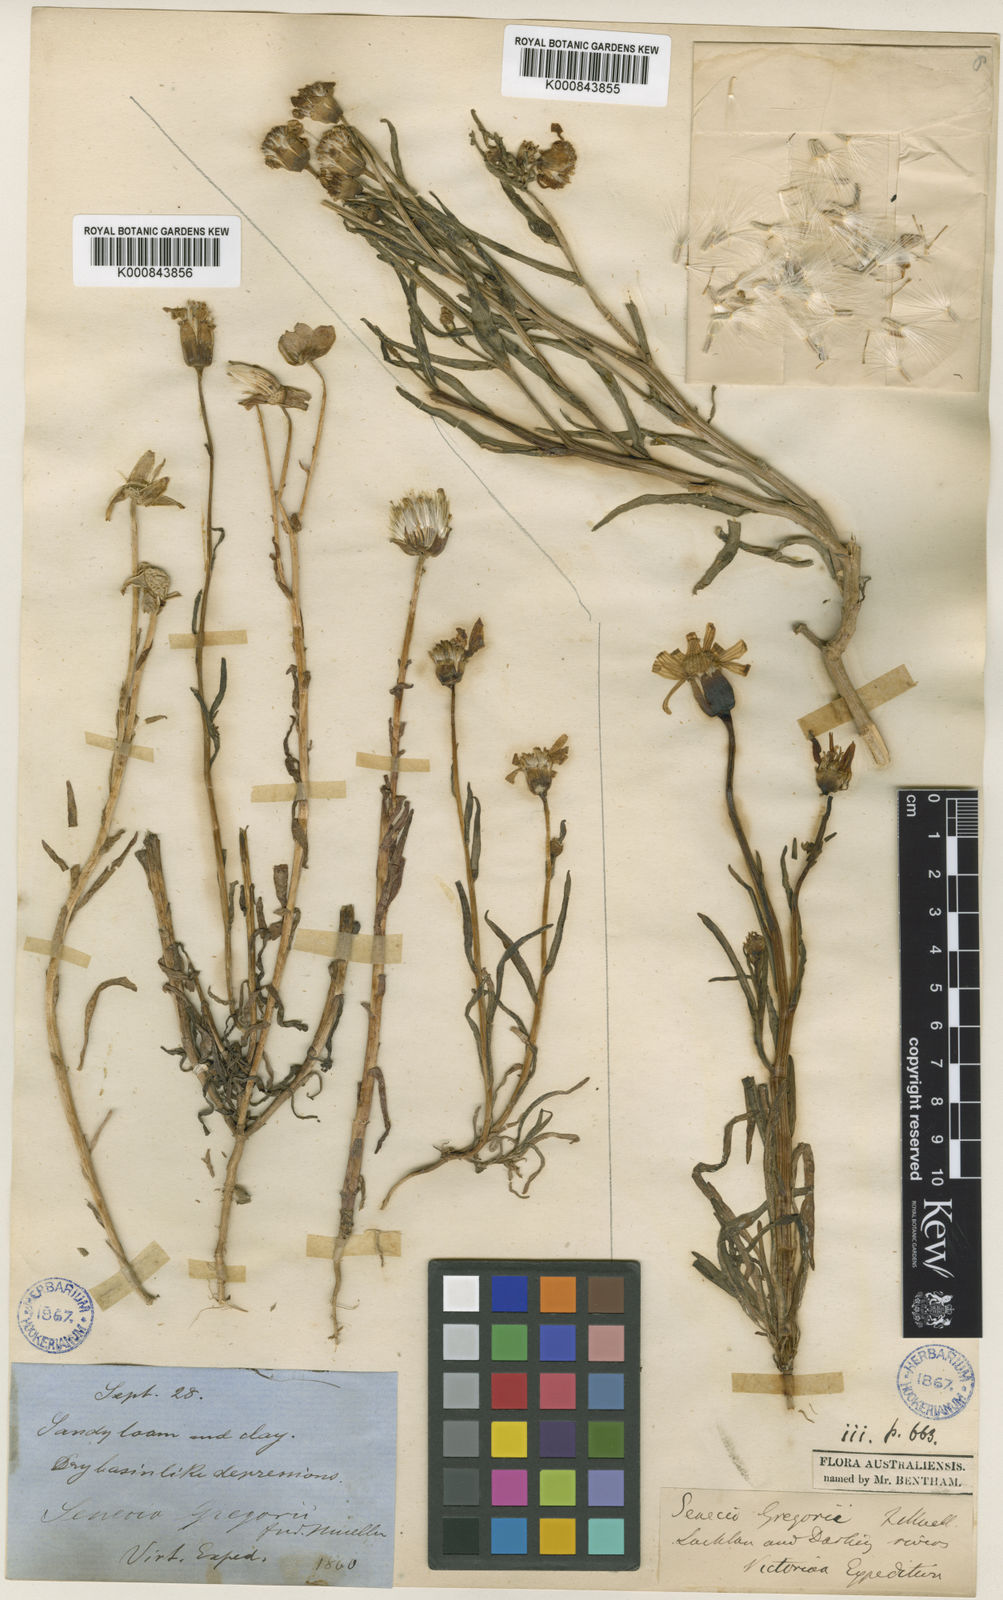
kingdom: Plantae
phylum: Tracheophyta
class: Magnoliopsida
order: Asterales
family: Asteraceae
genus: Othonna
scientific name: Othonna gregorii
